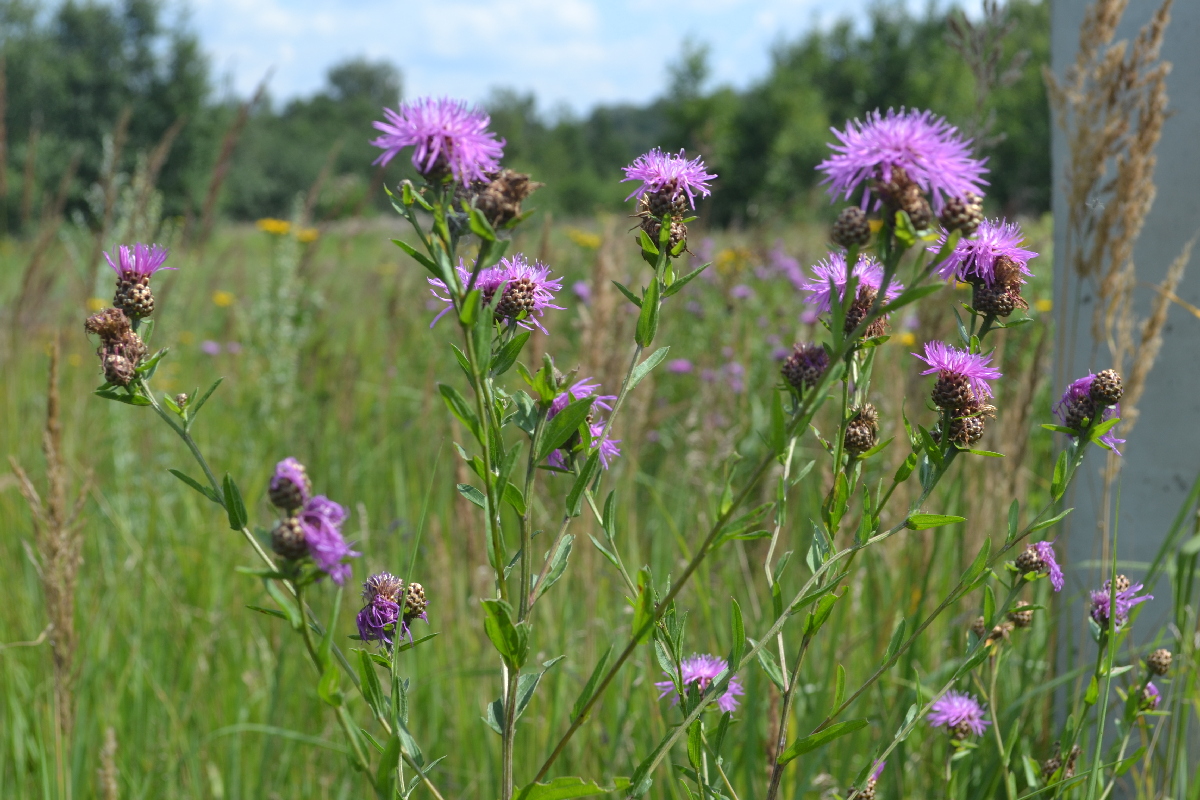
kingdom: Plantae
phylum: Tracheophyta
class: Magnoliopsida
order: Asterales
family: Asteraceae
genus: Centaurea
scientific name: Centaurea jacea
